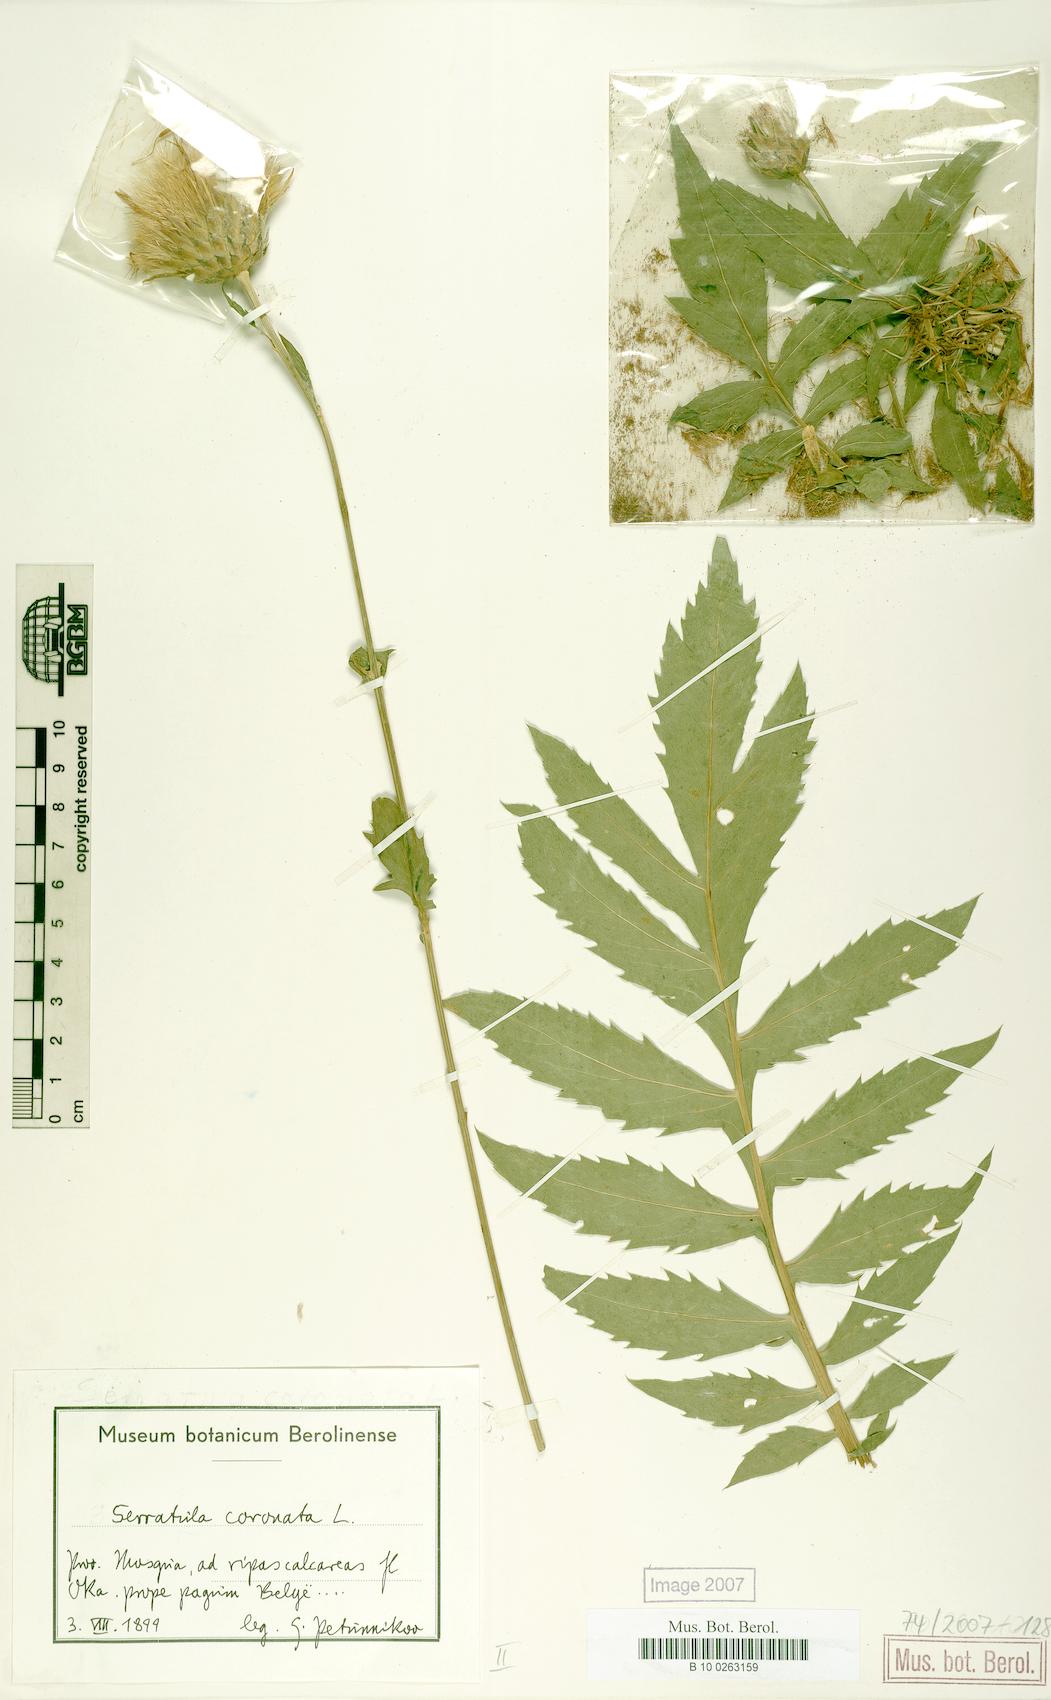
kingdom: Plantae
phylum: Tracheophyta
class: Magnoliopsida
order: Asterales
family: Asteraceae
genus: Serratula
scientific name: Serratula coronata
